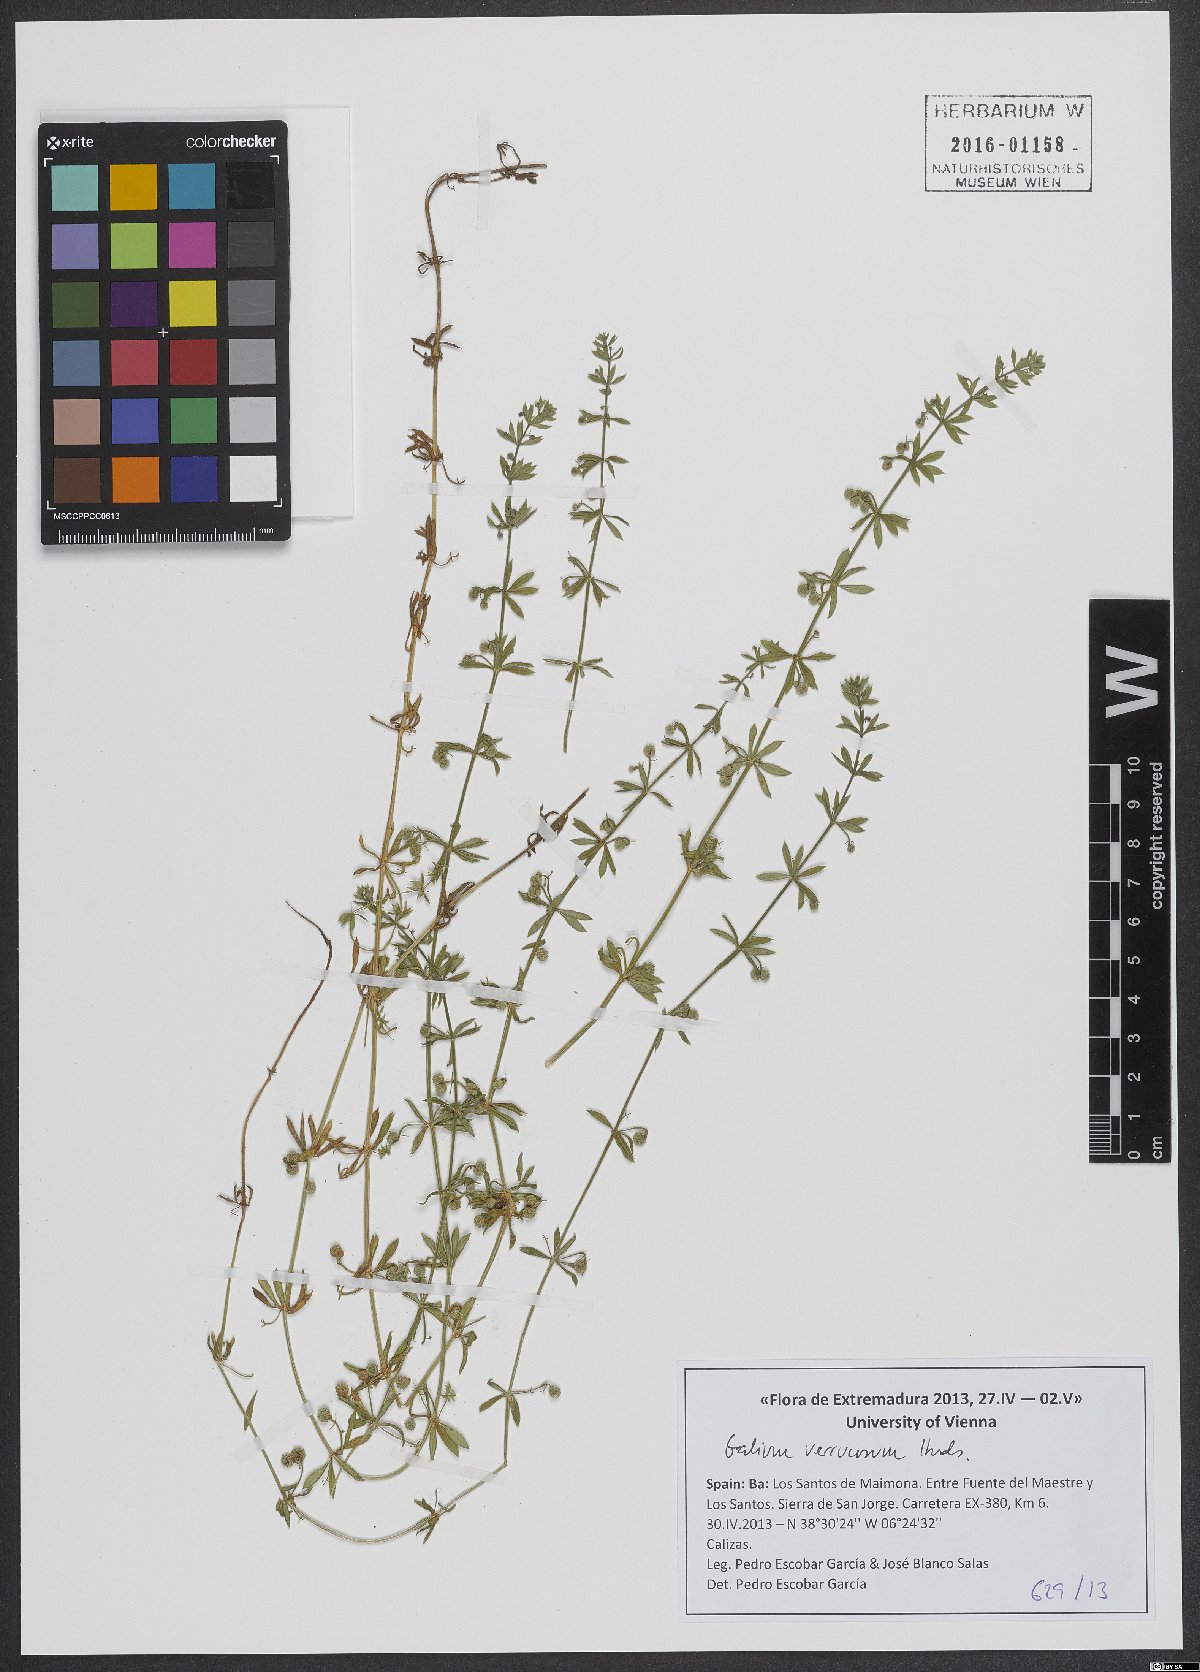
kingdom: Plantae
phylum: Tracheophyta
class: Magnoliopsida
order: Gentianales
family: Rubiaceae
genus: Galium
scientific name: Galium verrucosum
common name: Warty bedstraw
